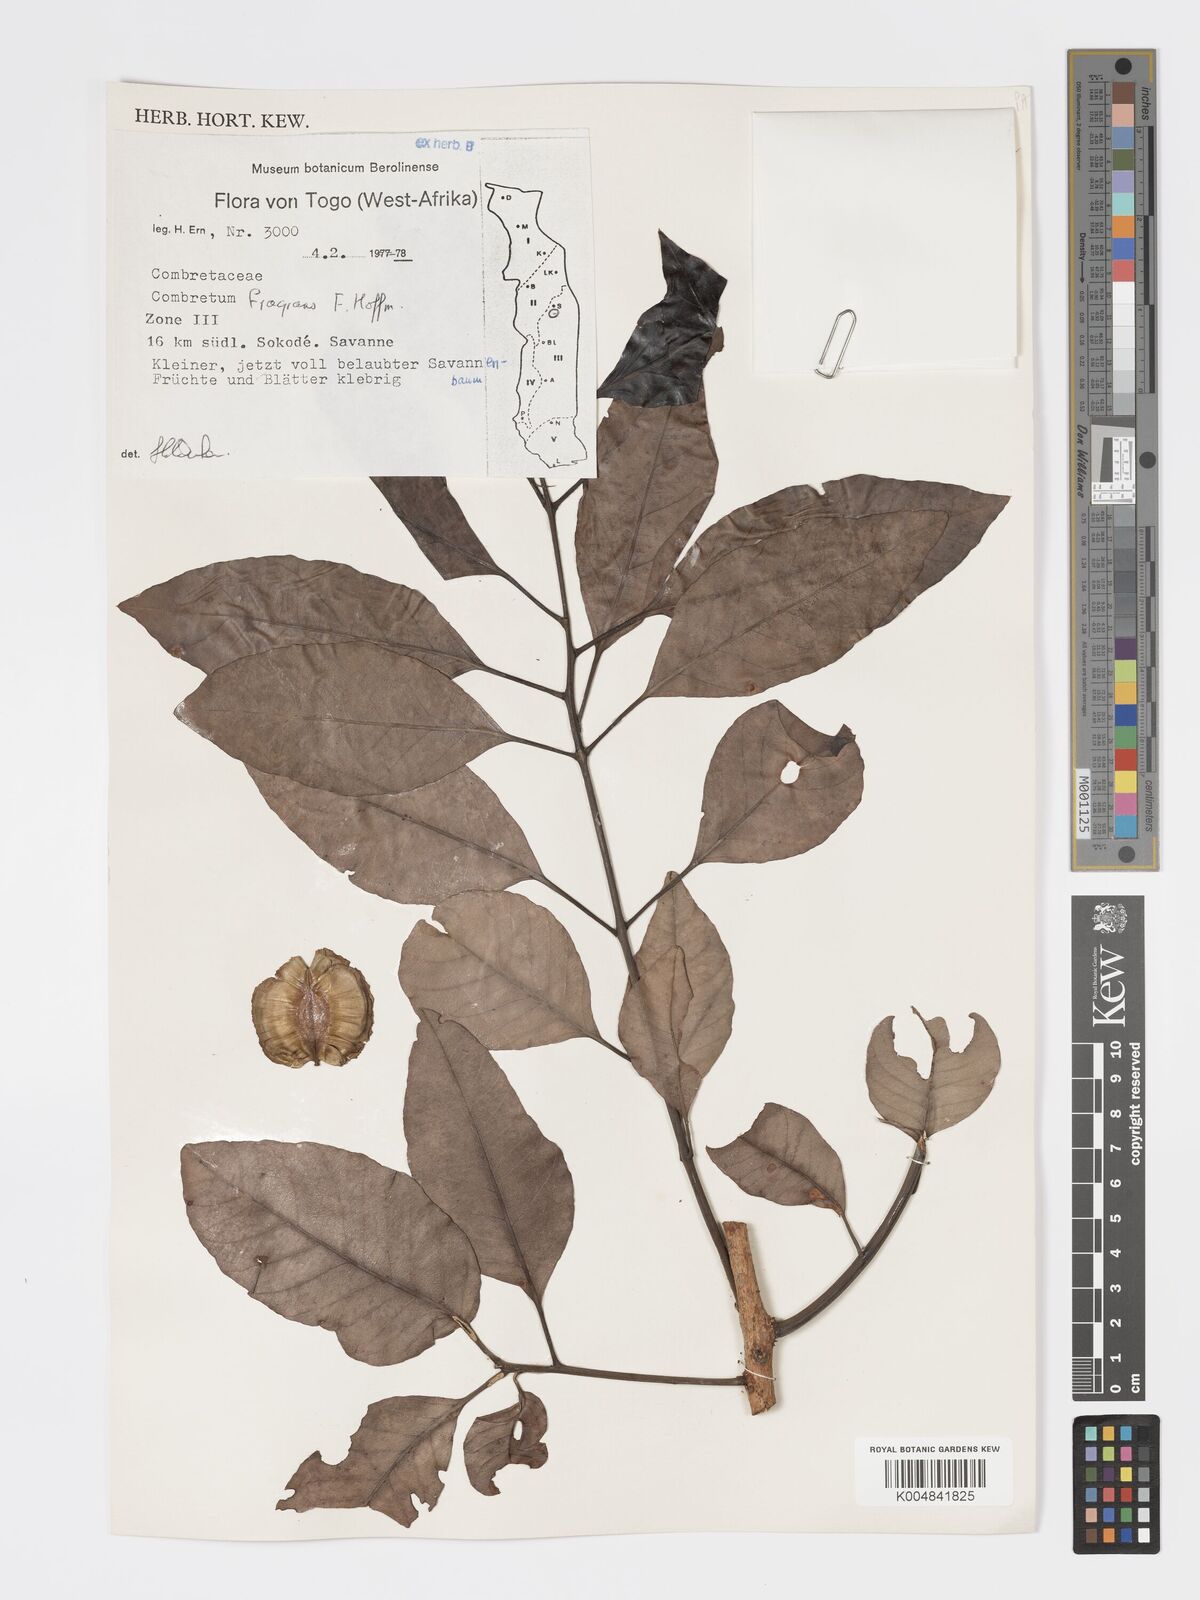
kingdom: Plantae
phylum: Tracheophyta
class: Magnoliopsida
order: Myrtales
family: Combretaceae
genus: Combretum
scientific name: Combretum adenogonium
